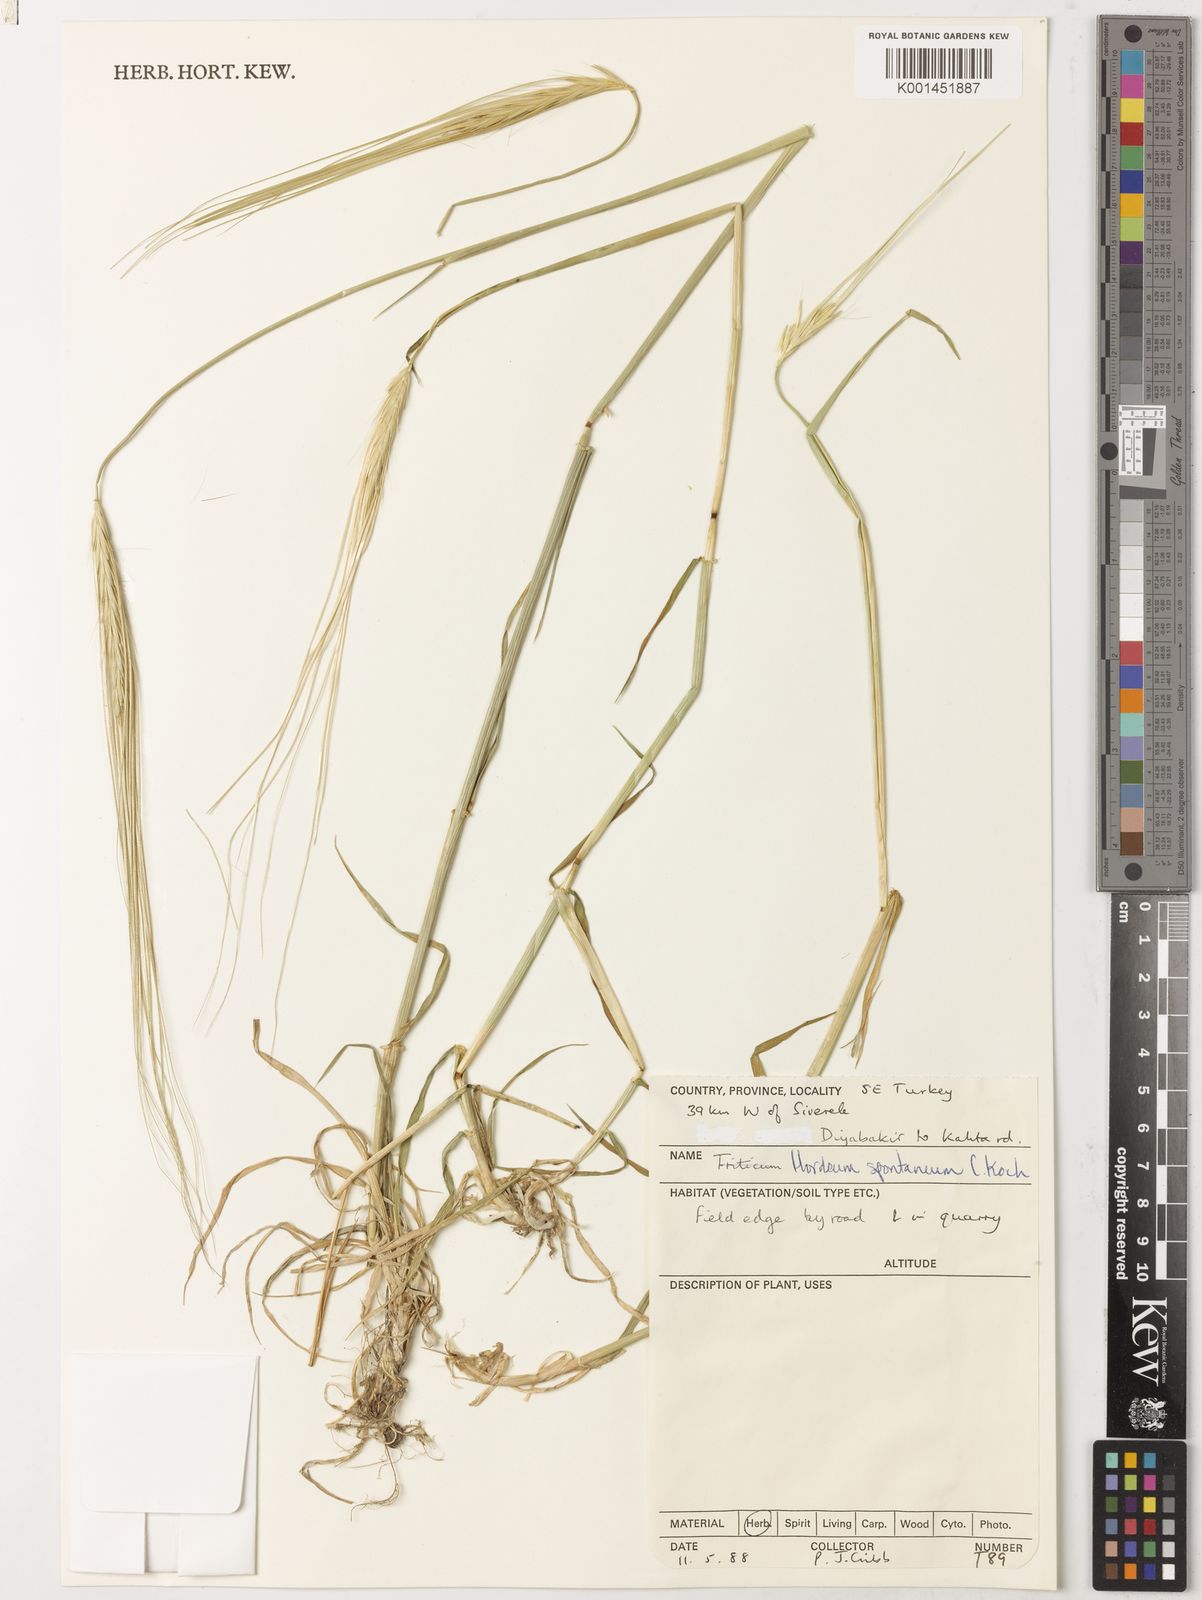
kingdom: Plantae
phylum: Tracheophyta
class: Liliopsida
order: Poales
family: Poaceae
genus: Hordeum
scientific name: Hordeum spontaneum
